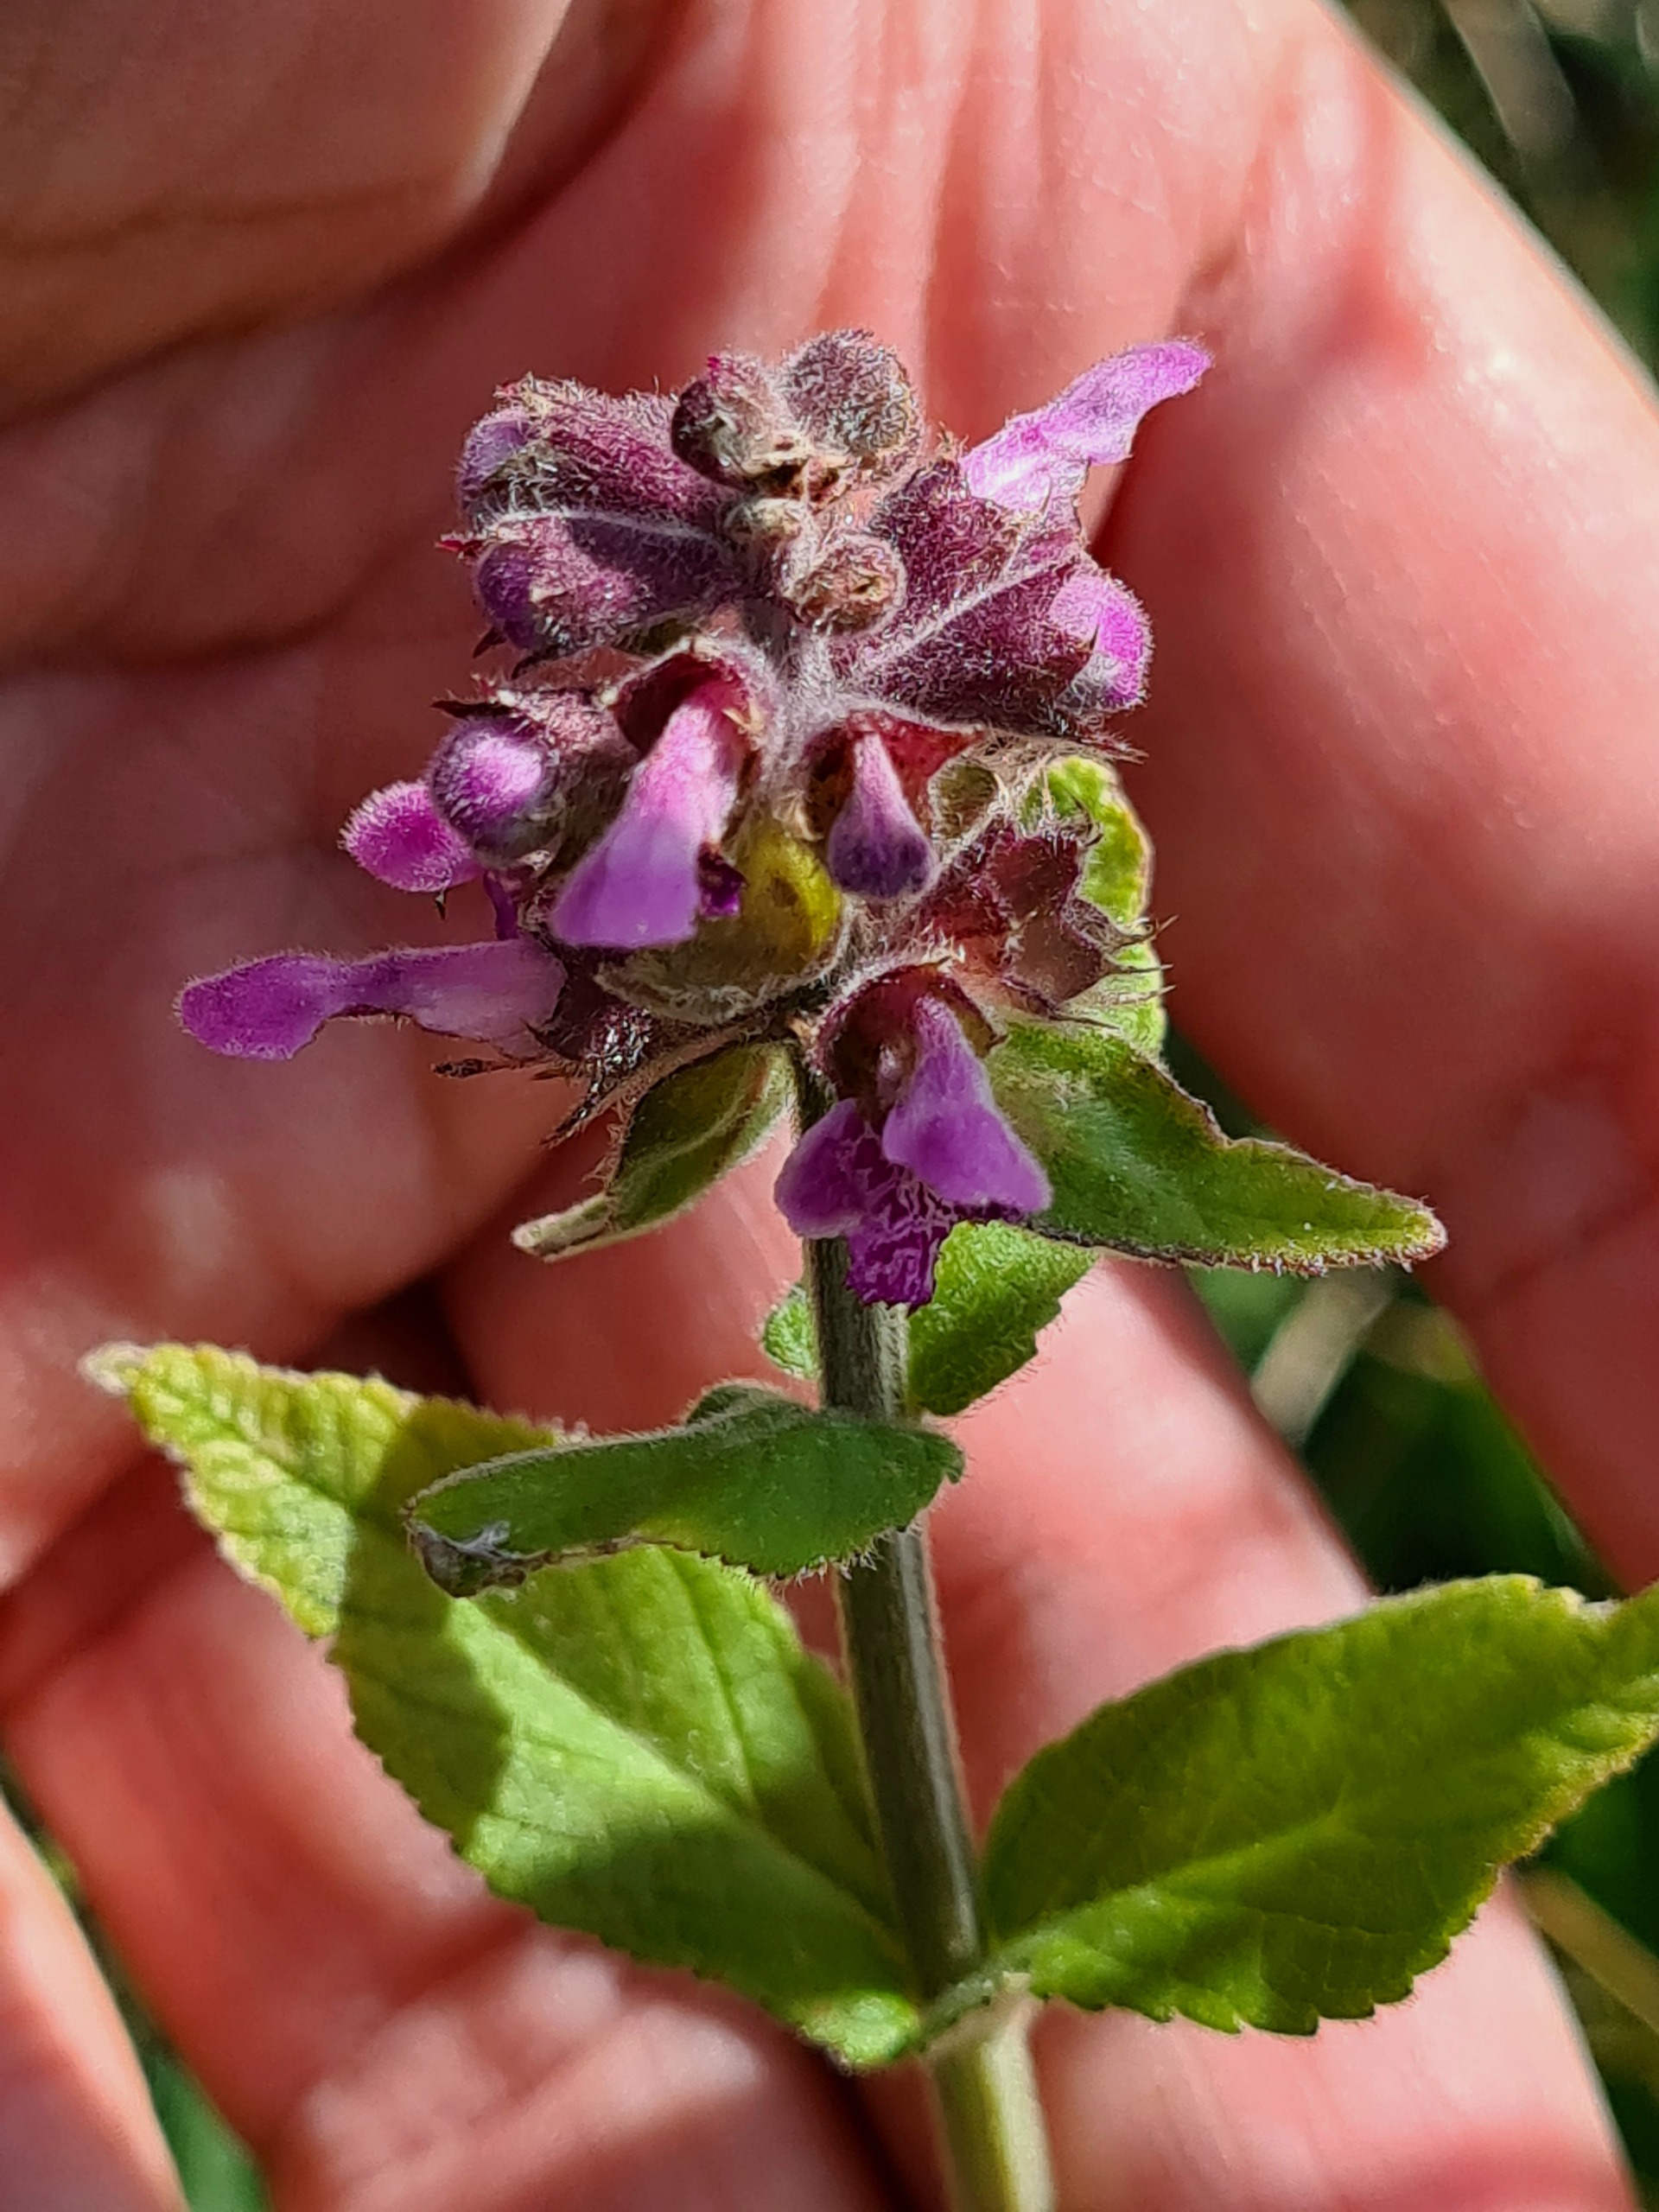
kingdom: Plantae
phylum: Tracheophyta
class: Magnoliopsida
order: Lamiales
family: Lamiaceae
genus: Stachys
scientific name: Stachys palustris
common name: Kær-galtetand
